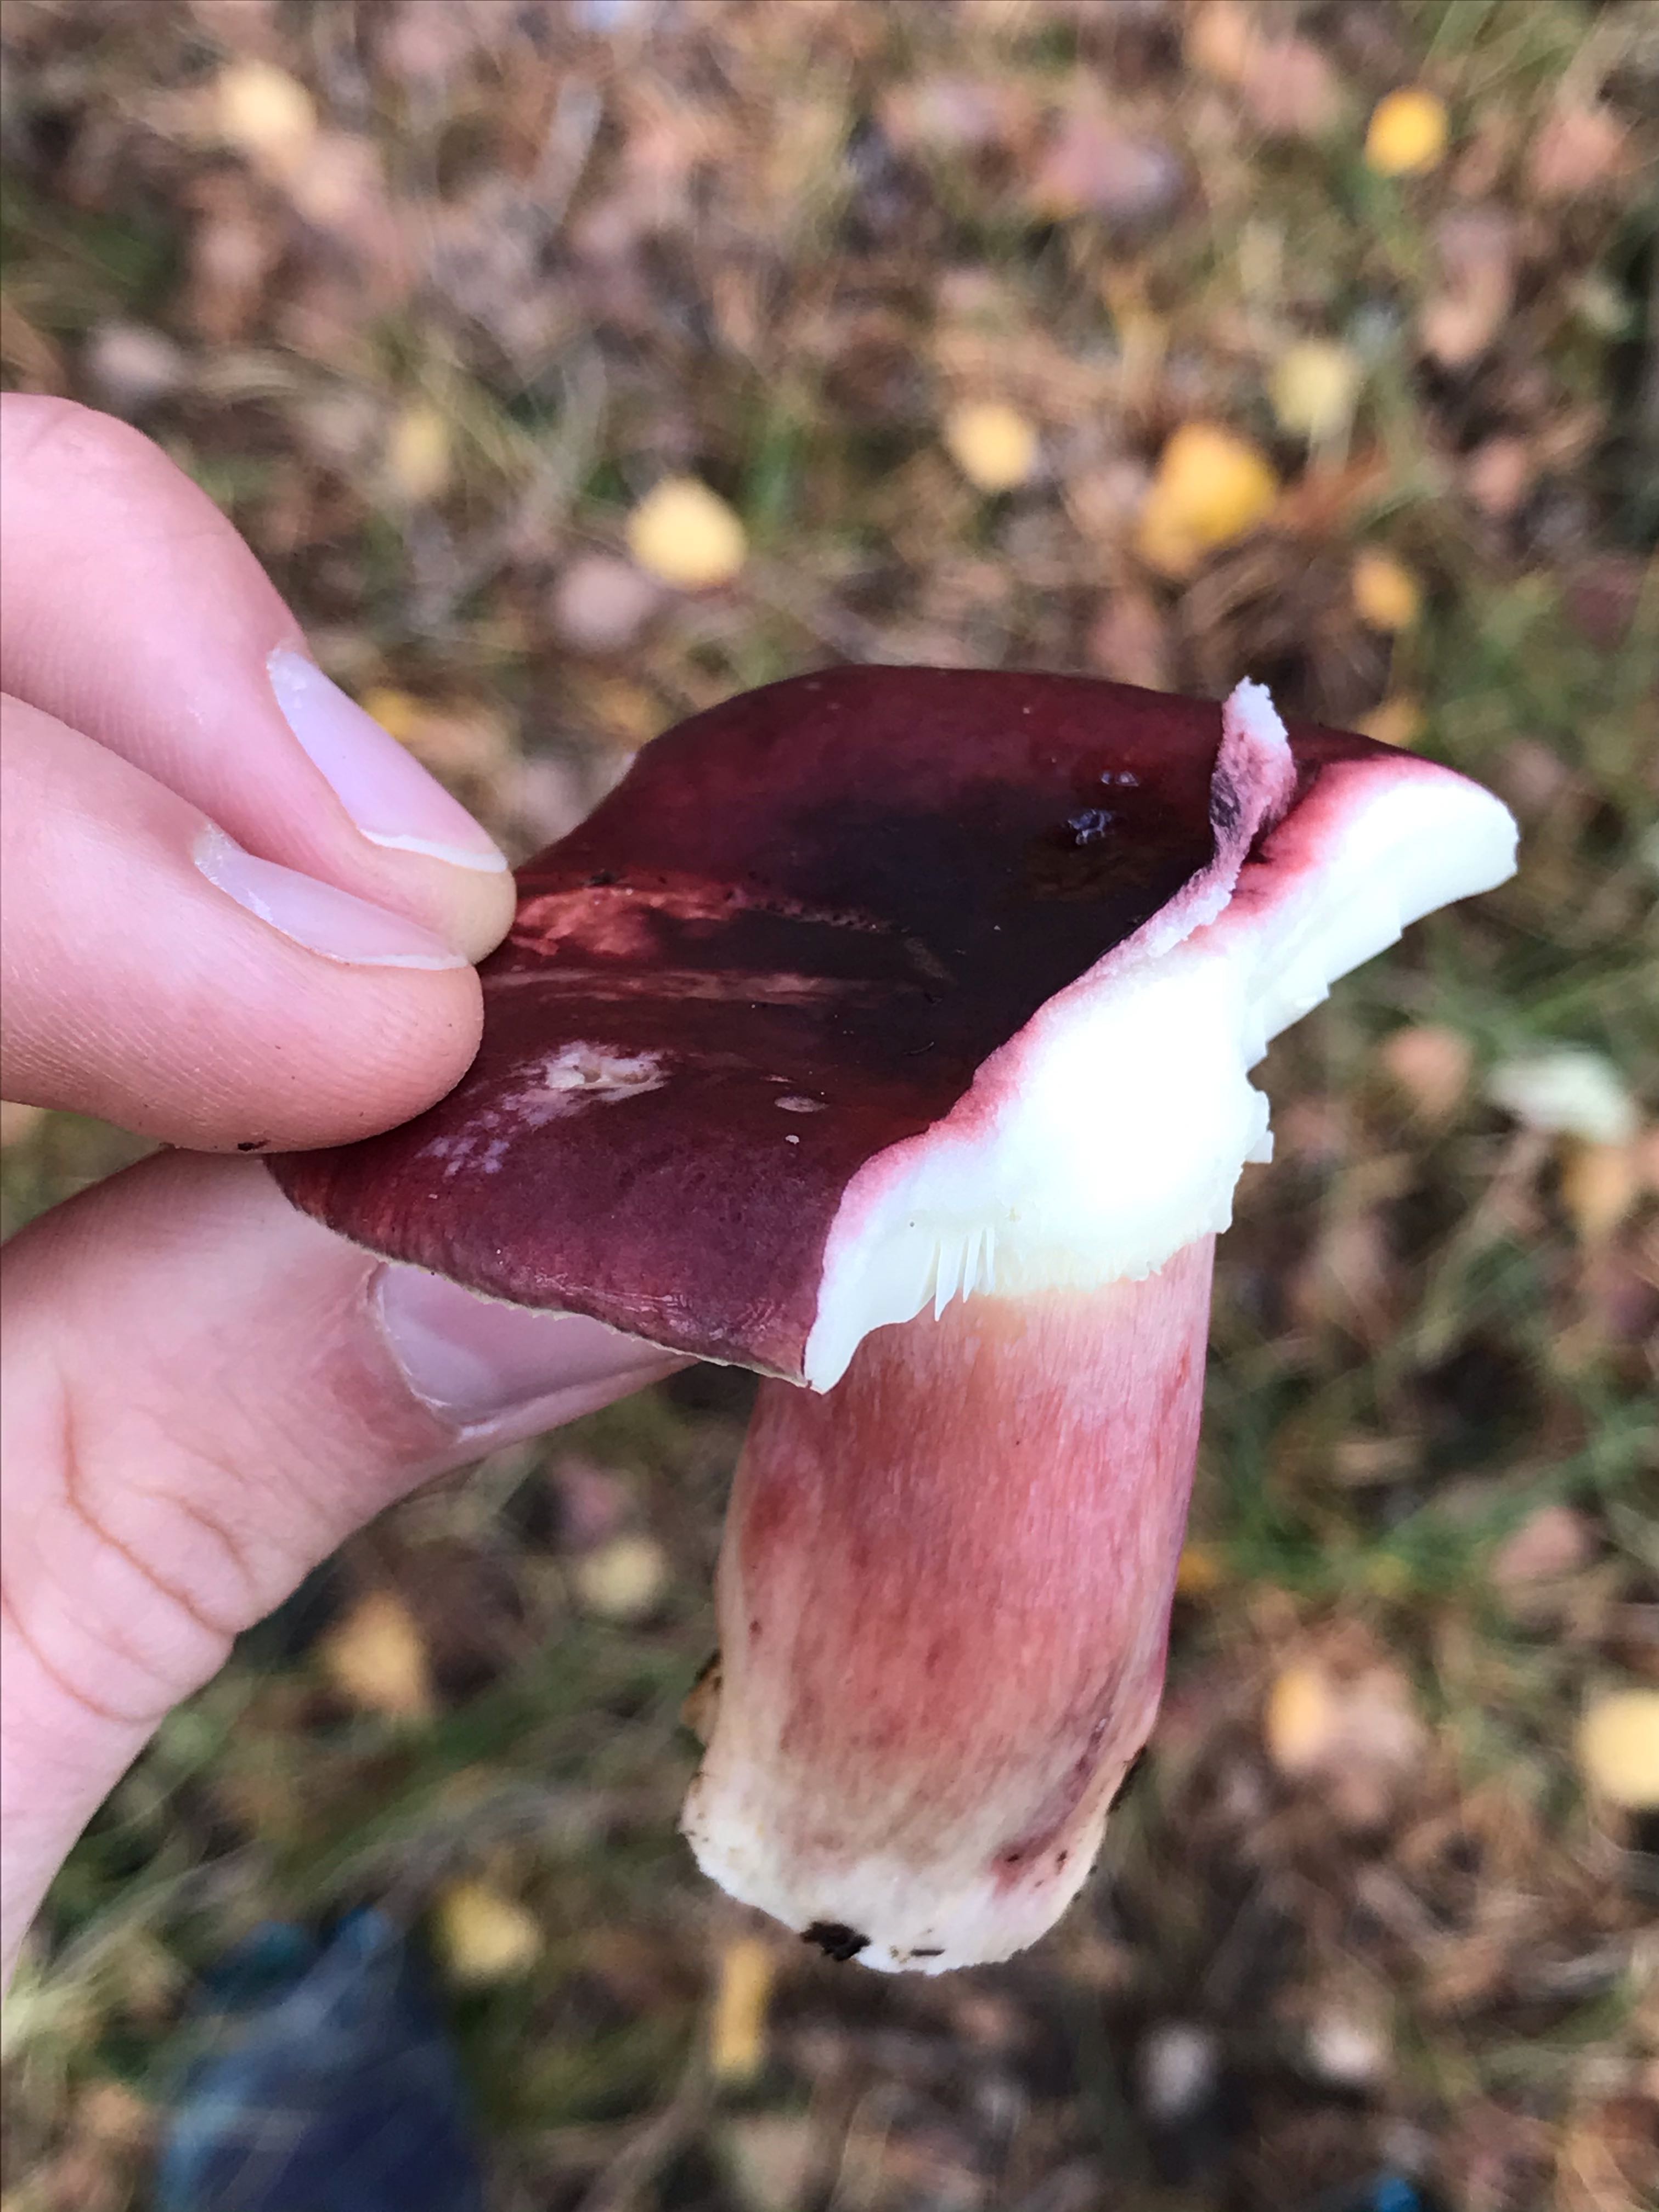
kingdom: Fungi
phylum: Basidiomycota
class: Agaricomycetes
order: Russulales
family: Russulaceae
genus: Russula
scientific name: Russula
